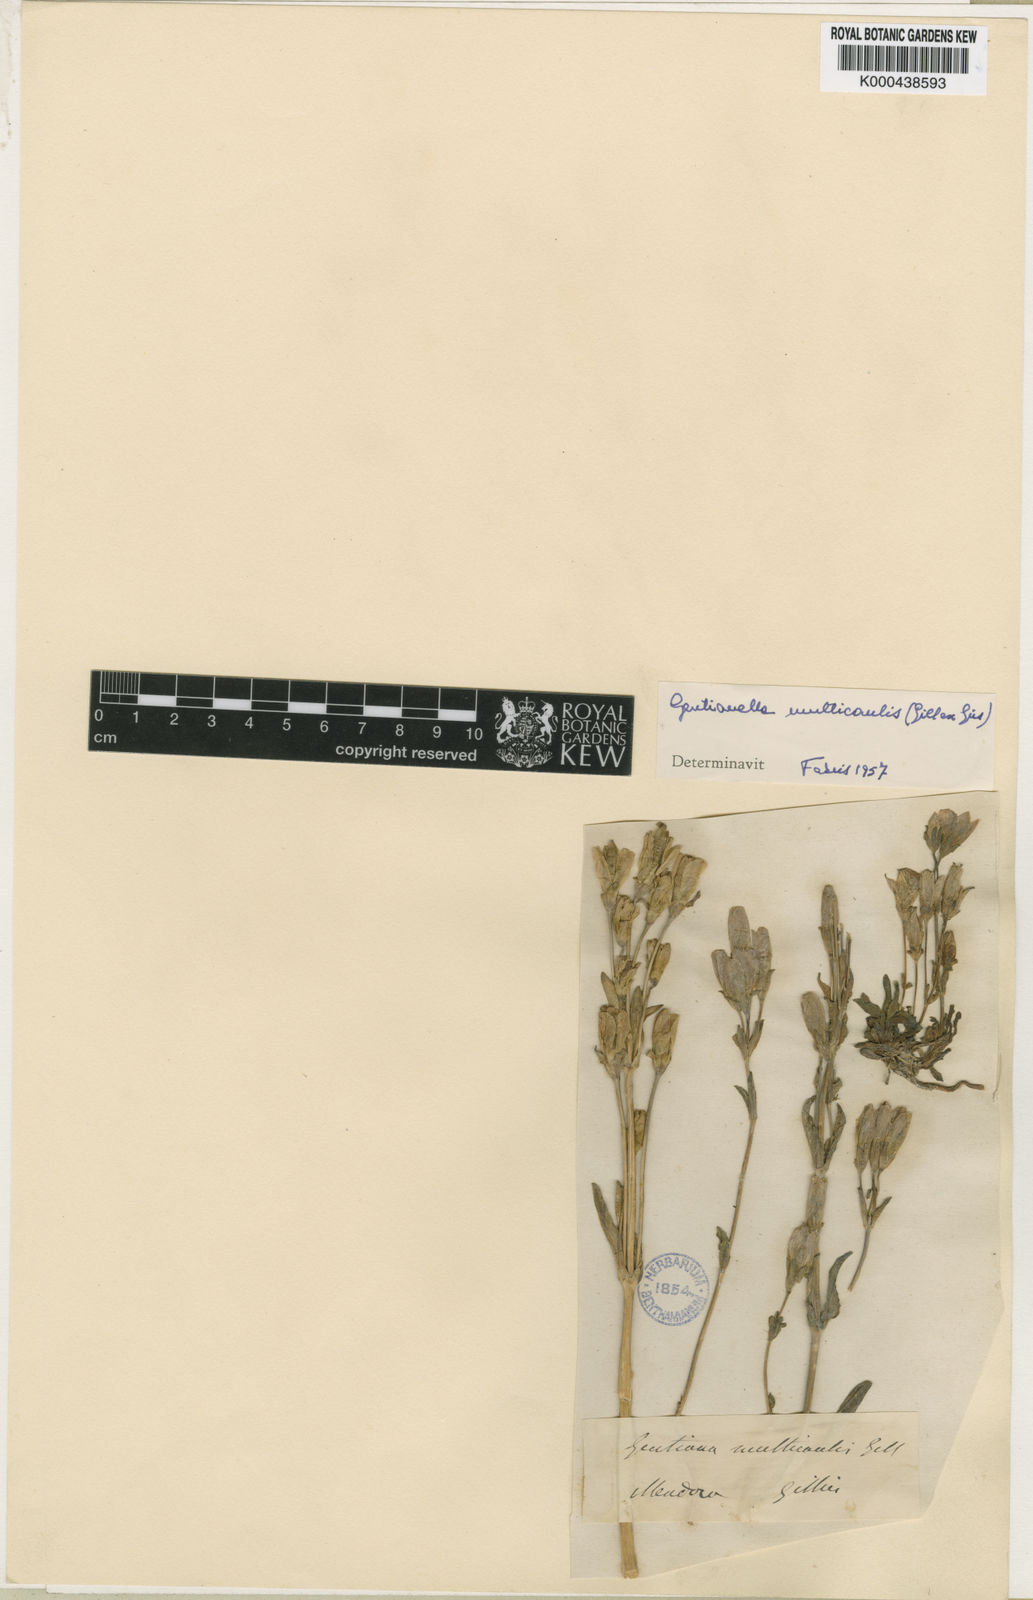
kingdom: Plantae
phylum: Tracheophyta
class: Magnoliopsida
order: Gentianales
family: Gentianaceae
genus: Gentianella
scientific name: Gentianella multicaulis
